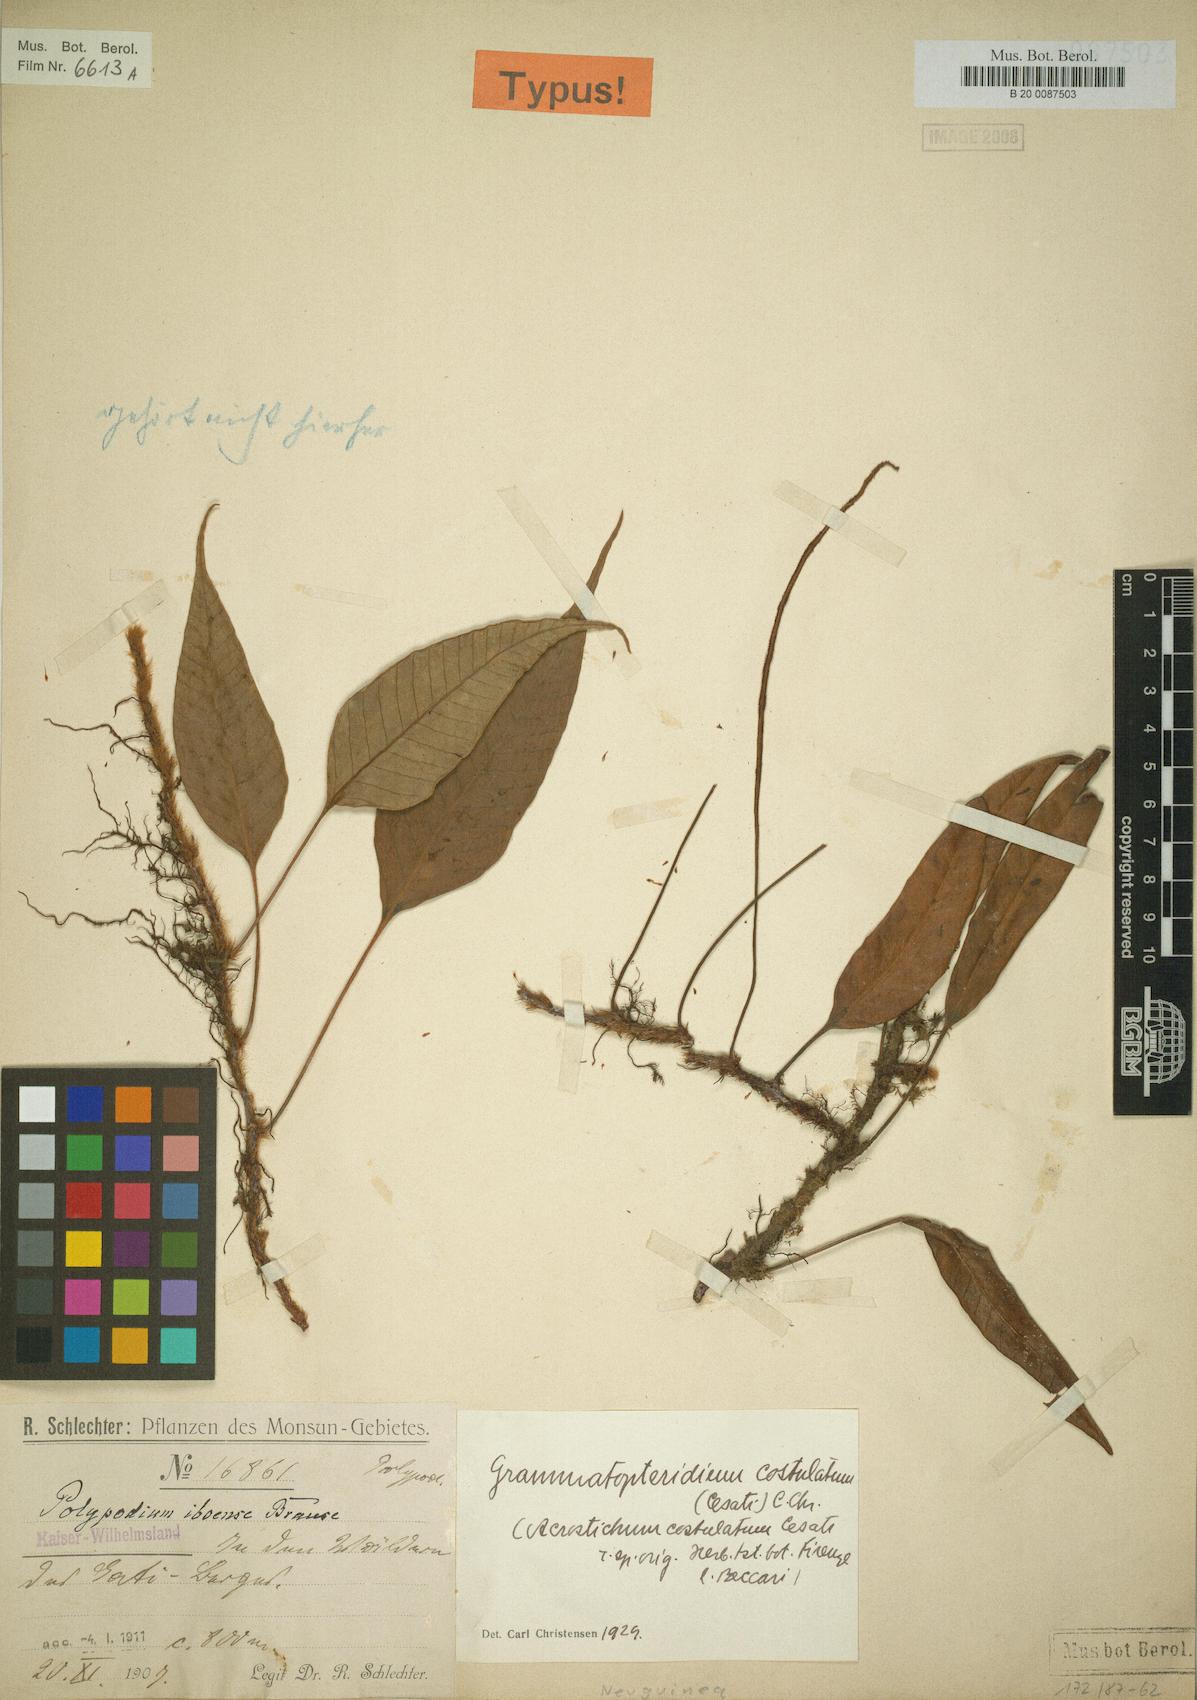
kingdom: Plantae
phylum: Tracheophyta
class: Polypodiopsida
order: Polypodiales
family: Polypodiaceae
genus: Selliguea
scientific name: Selliguea costulata
